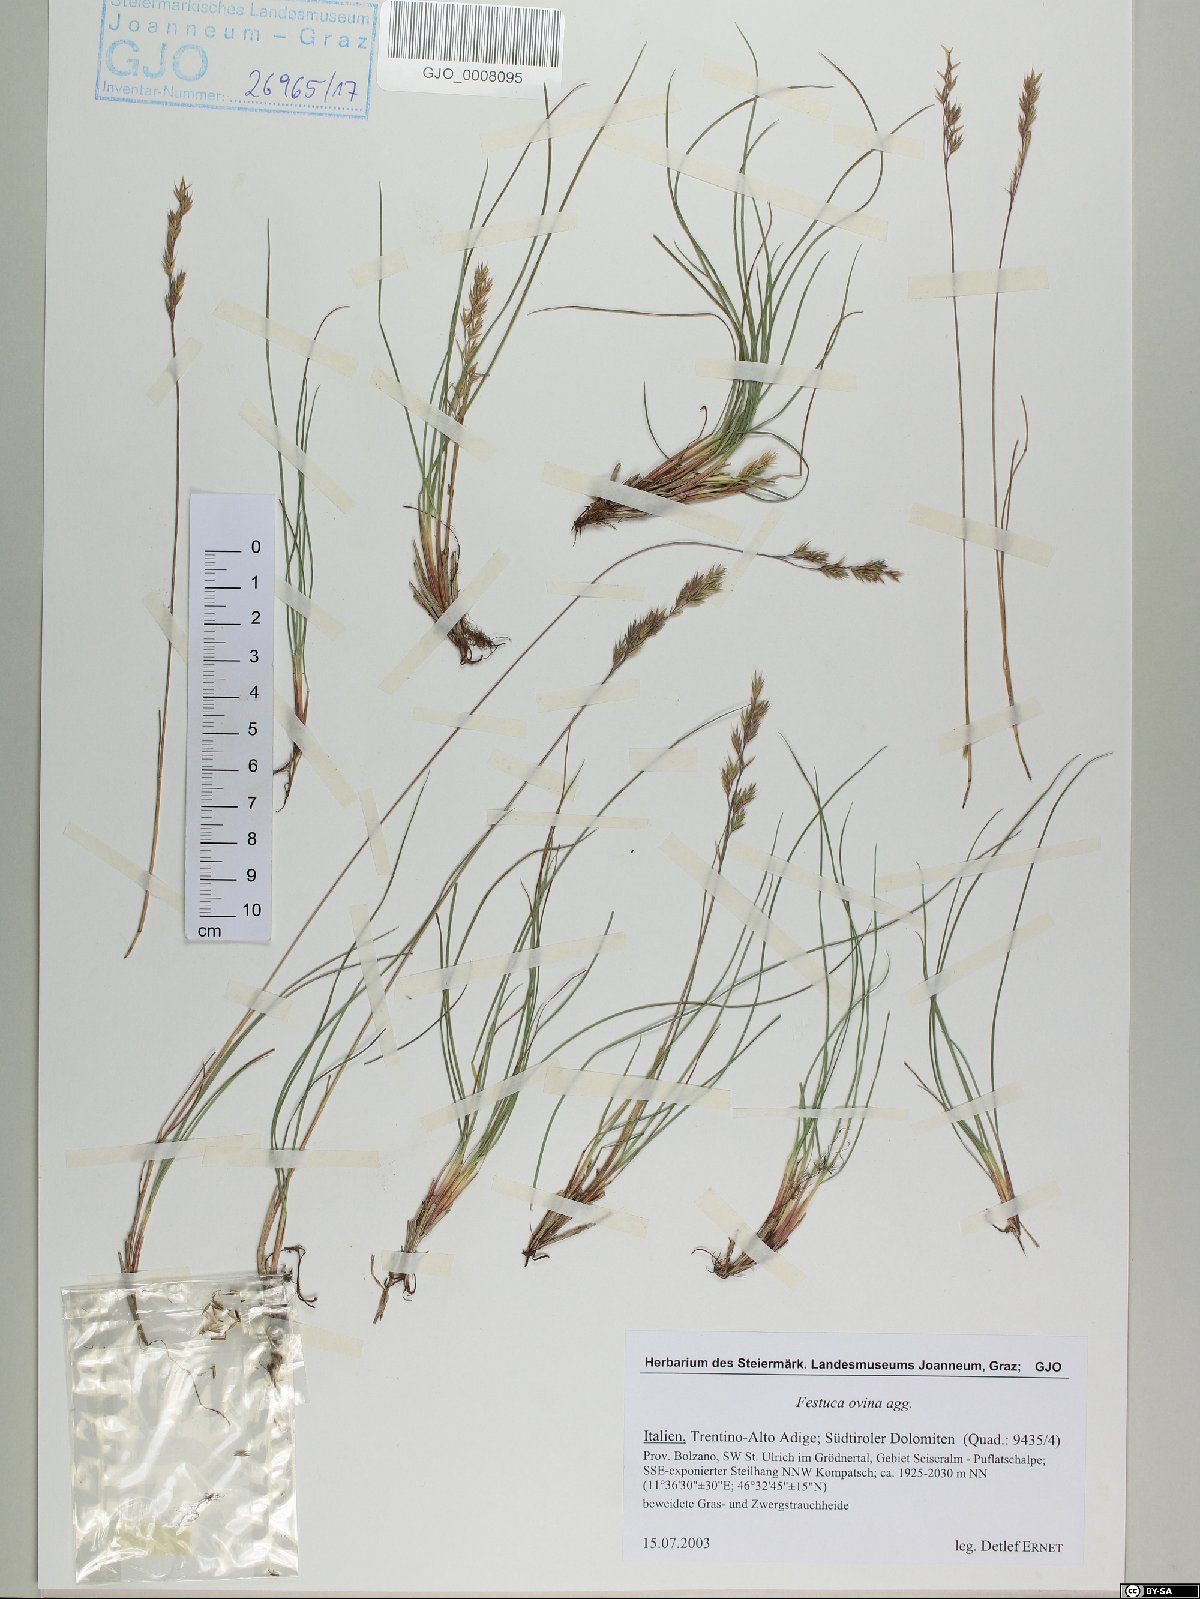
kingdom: Plantae
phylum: Tracheophyta
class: Liliopsida
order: Poales
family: Poaceae
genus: Festuca
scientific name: Festuca ovina
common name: Sheep fescue
